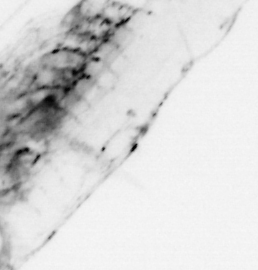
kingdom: Animalia
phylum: Chaetognatha
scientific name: Chaetognatha
